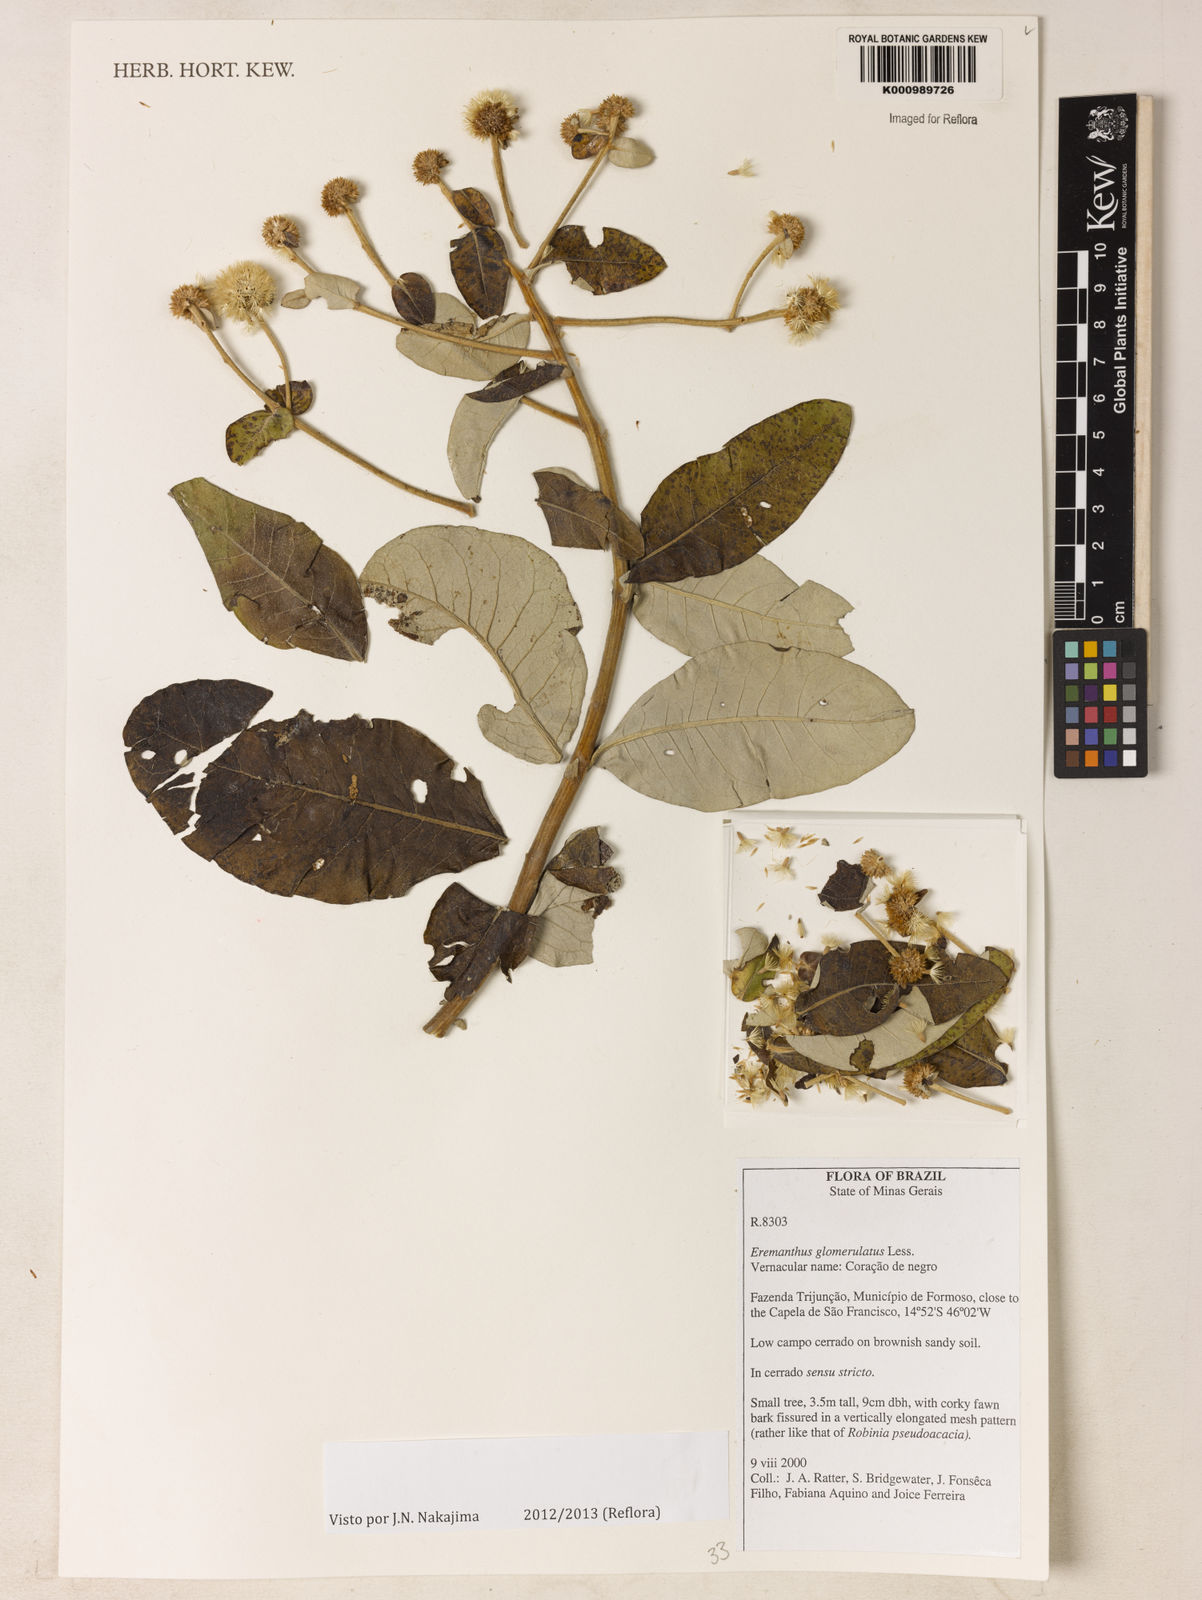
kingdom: Plantae
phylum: Tracheophyta
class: Magnoliopsida
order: Asterales
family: Asteraceae
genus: Eremanthus
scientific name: Eremanthus glomerulatus
